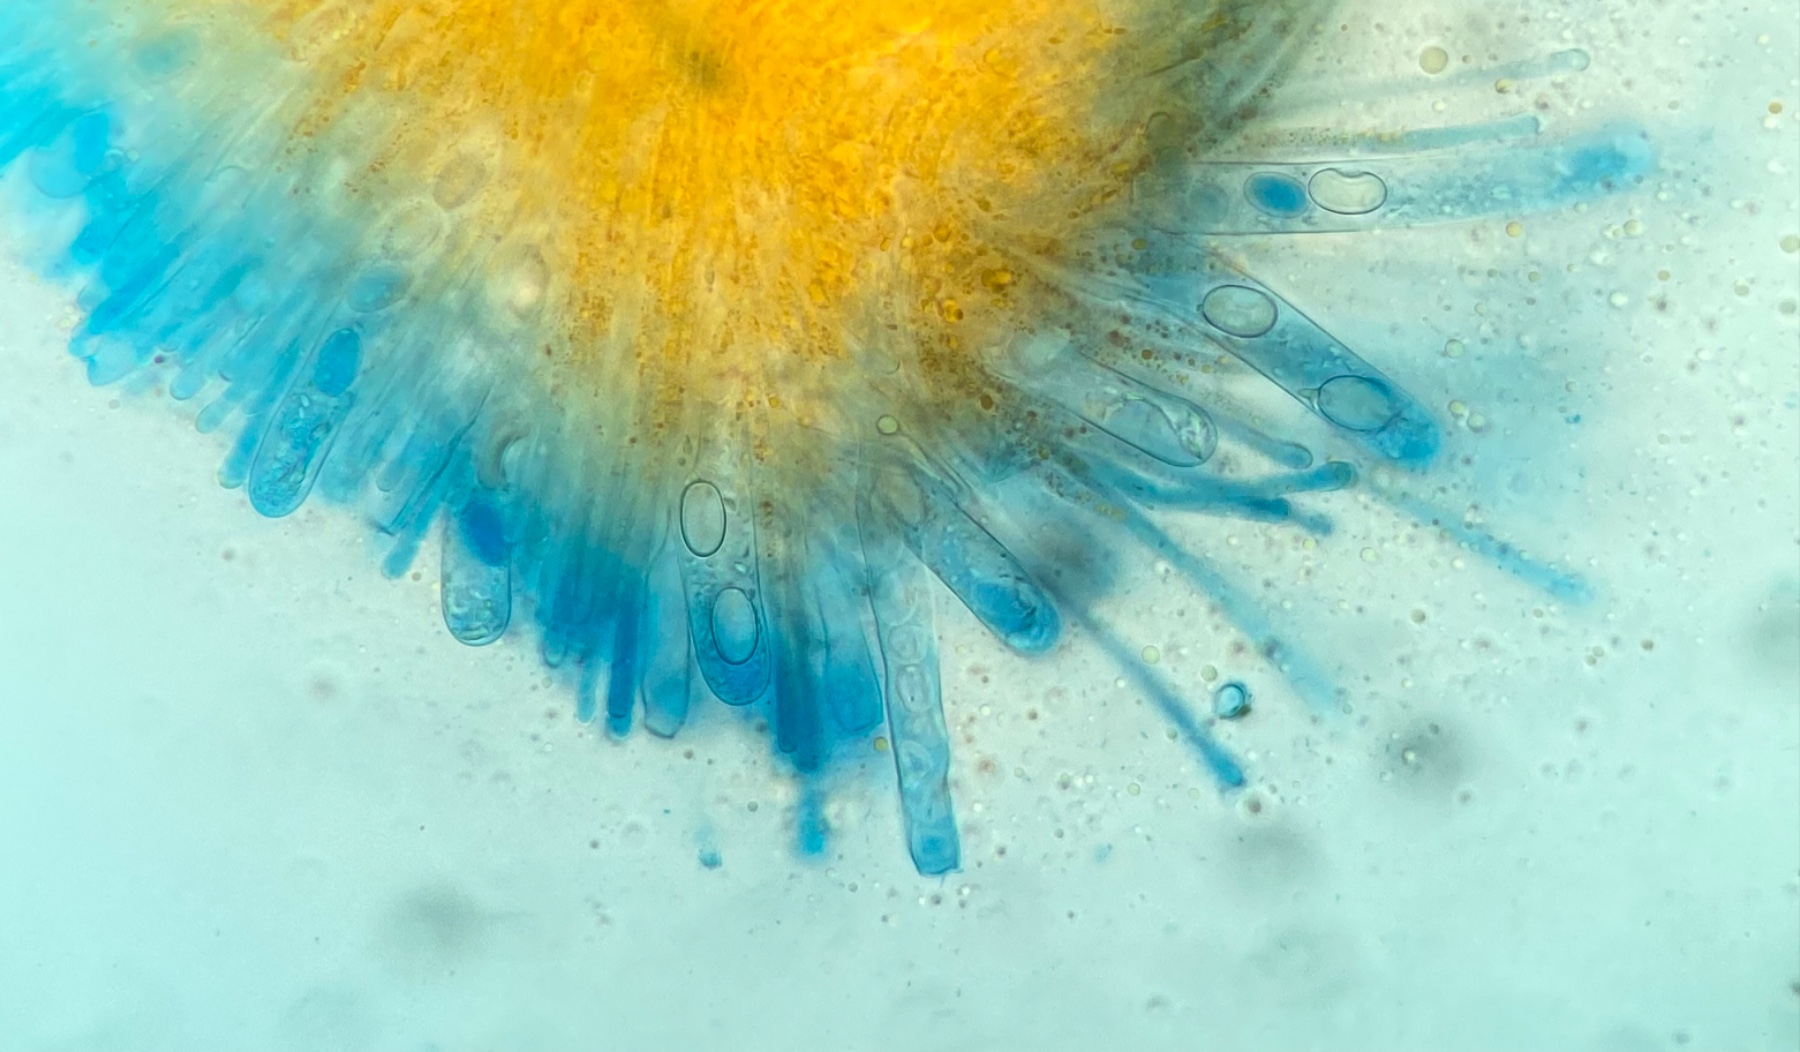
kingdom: Fungi
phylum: Ascomycota
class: Pezizomycetes
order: Pezizales
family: Pyronemataceae
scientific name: Pyronemataceae
